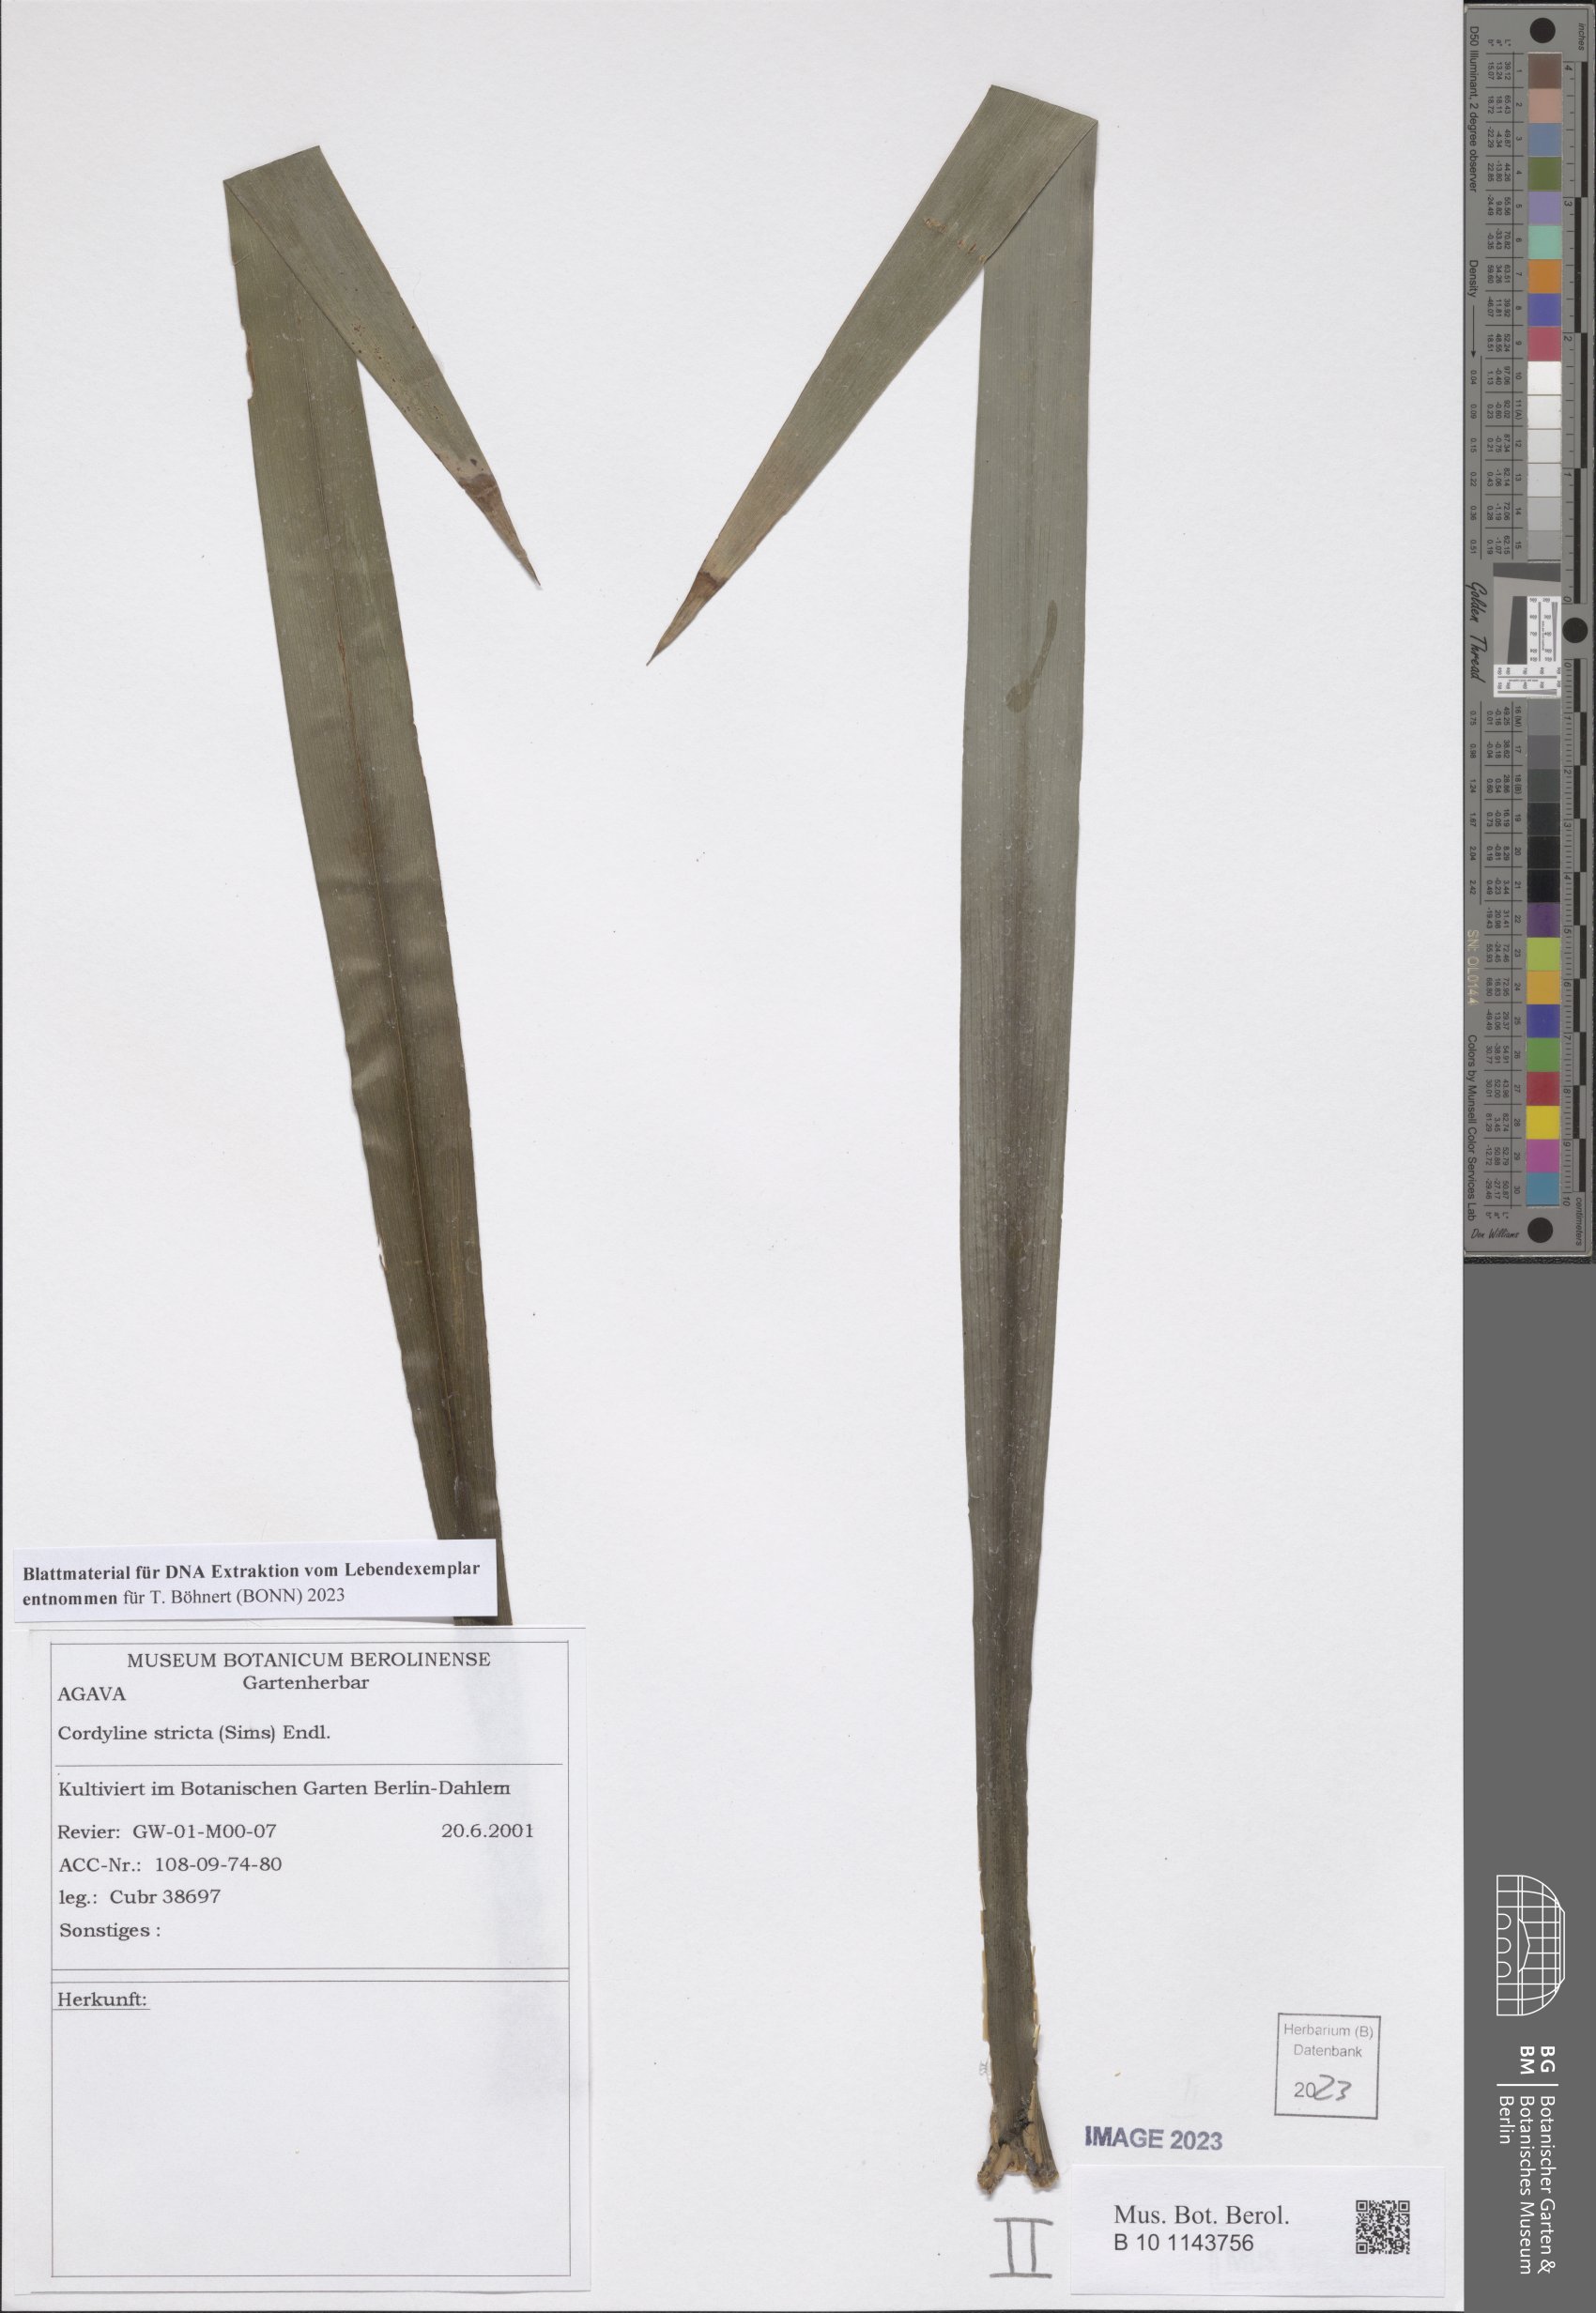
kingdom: Plantae
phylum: Tracheophyta
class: Liliopsida
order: Asparagales
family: Asparagaceae
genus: Cordyline
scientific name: Cordyline stricta
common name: Narrow-leaf palm-lily
